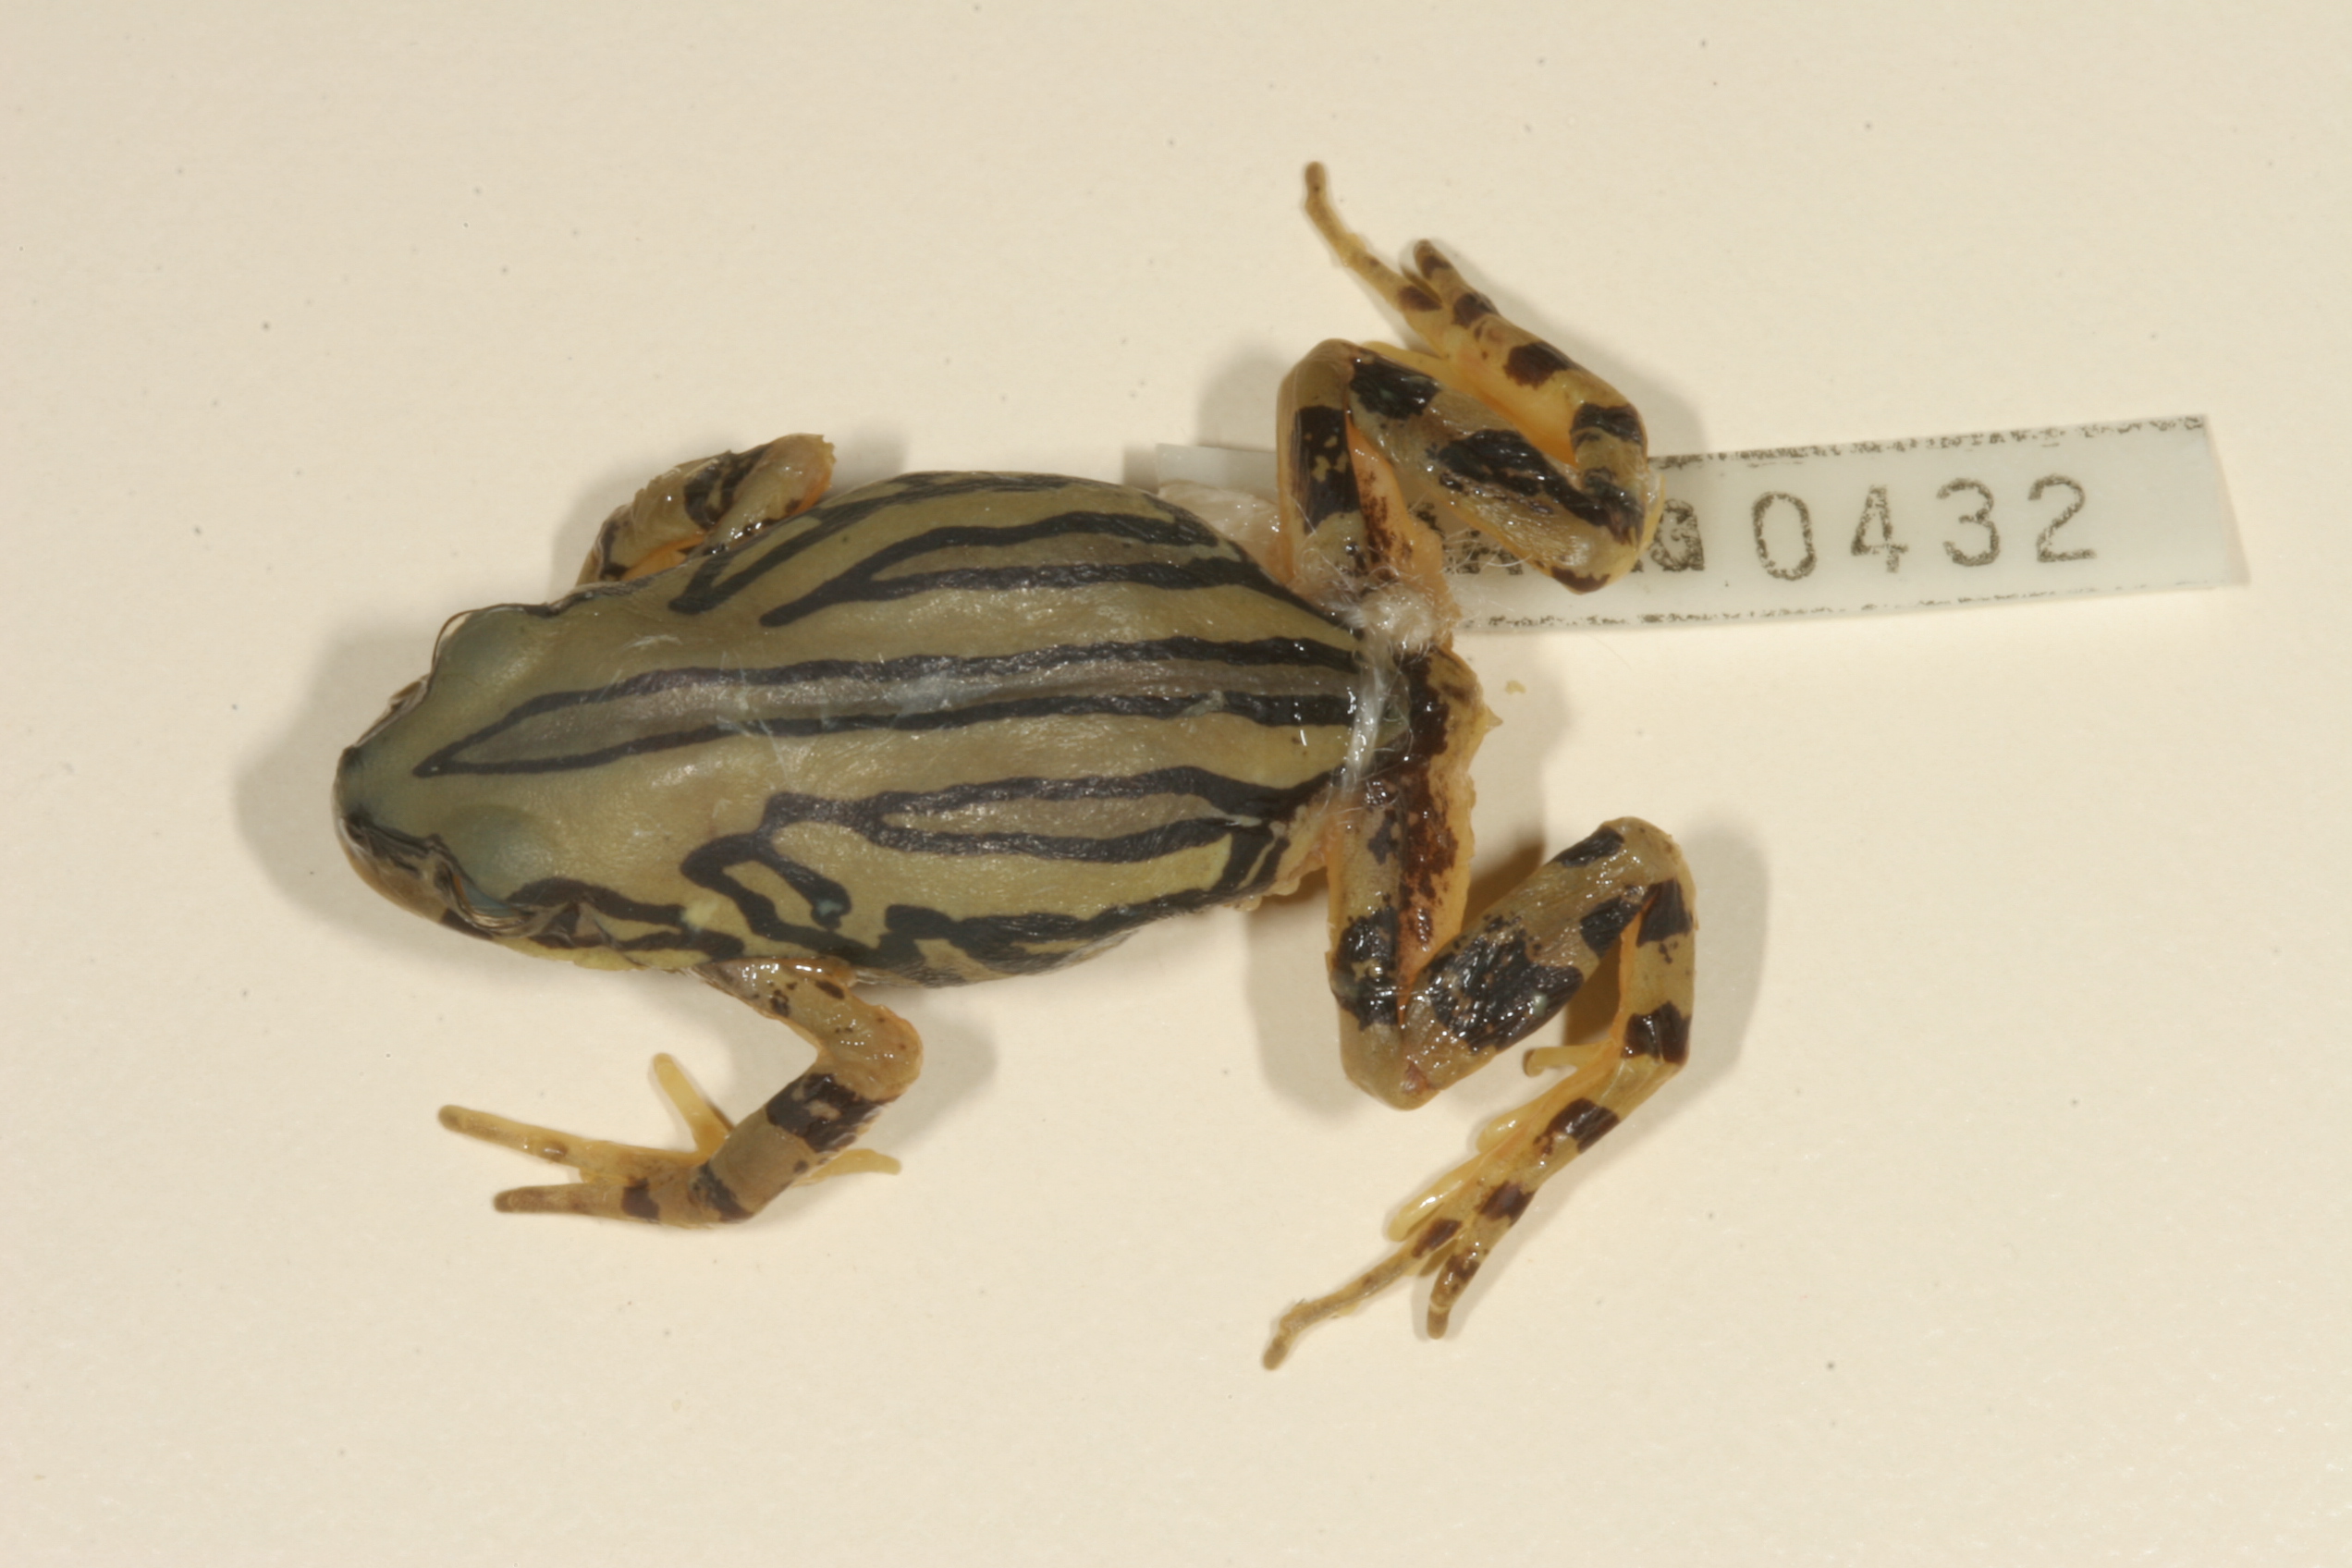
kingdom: Animalia
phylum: Chordata
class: Amphibia
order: Anura
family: Hyperoliidae
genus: Semnodactylus
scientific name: Semnodactylus wealii
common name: Weal's frog
